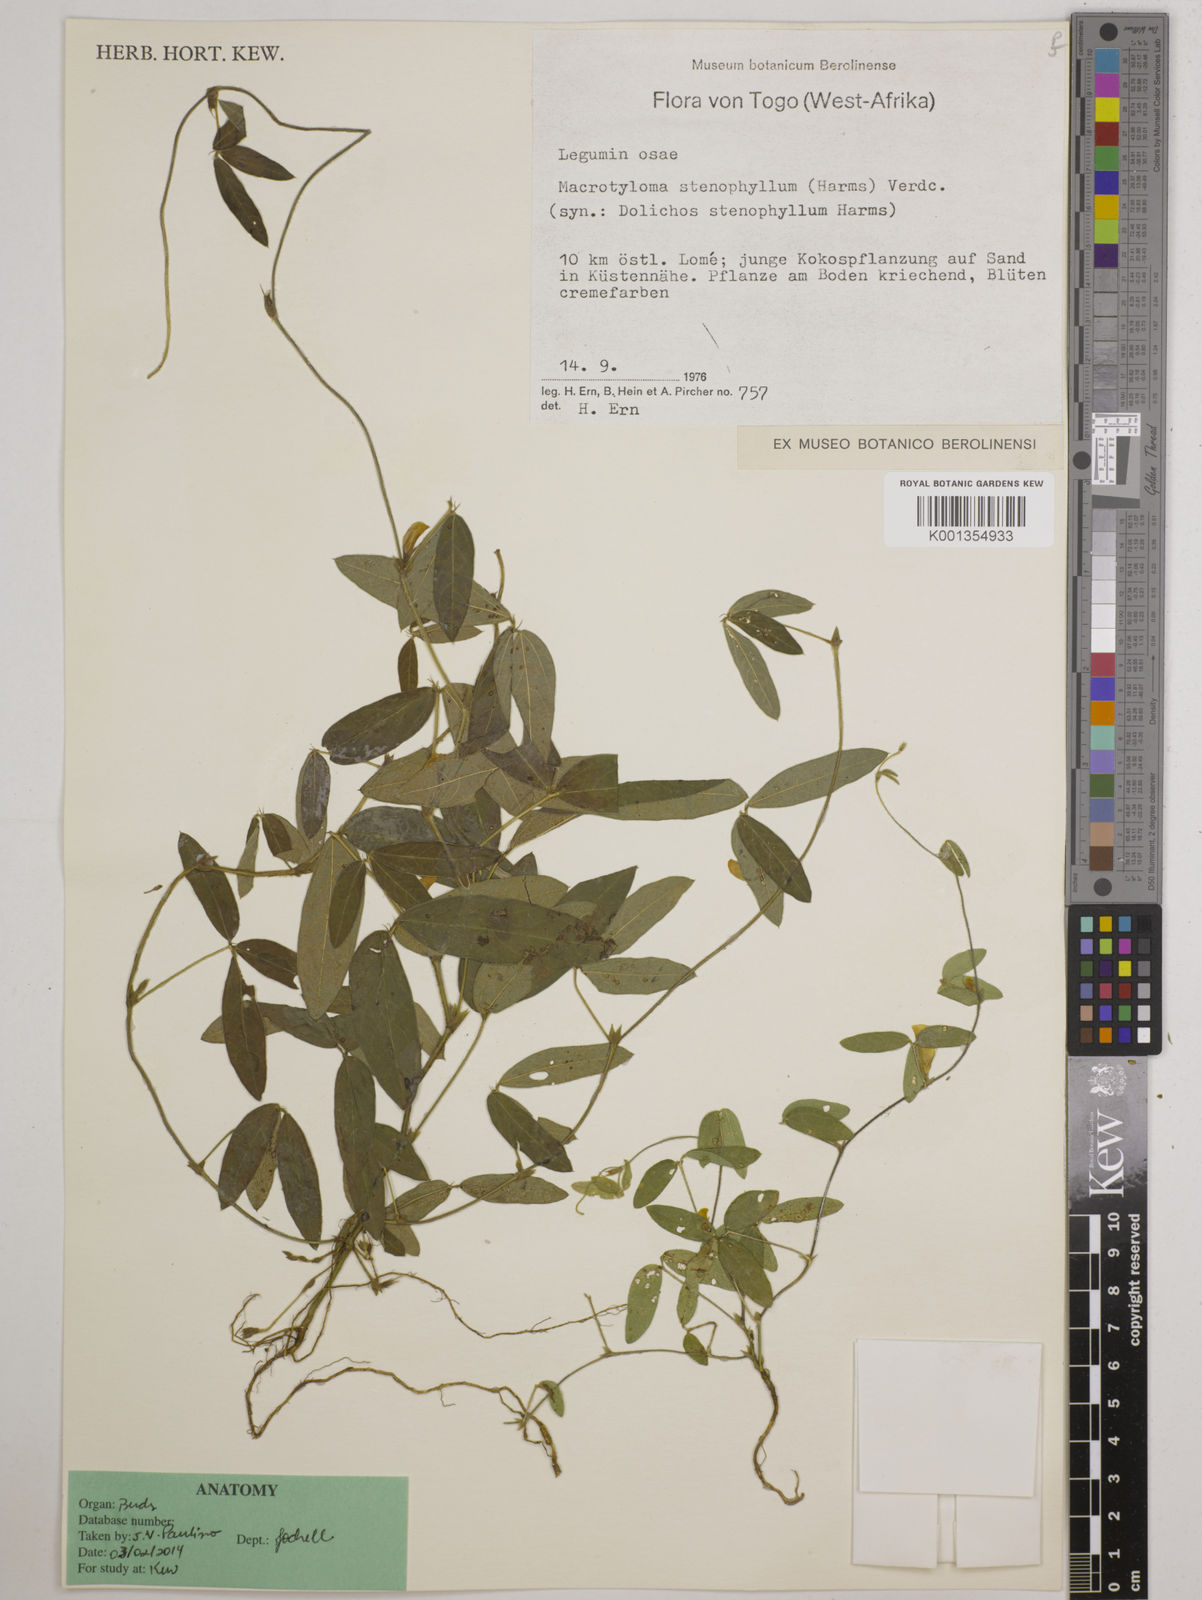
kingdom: Plantae
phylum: Tracheophyta
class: Magnoliopsida
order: Fabales
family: Fabaceae
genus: Macrotyloma
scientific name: Macrotyloma stenophyllum
